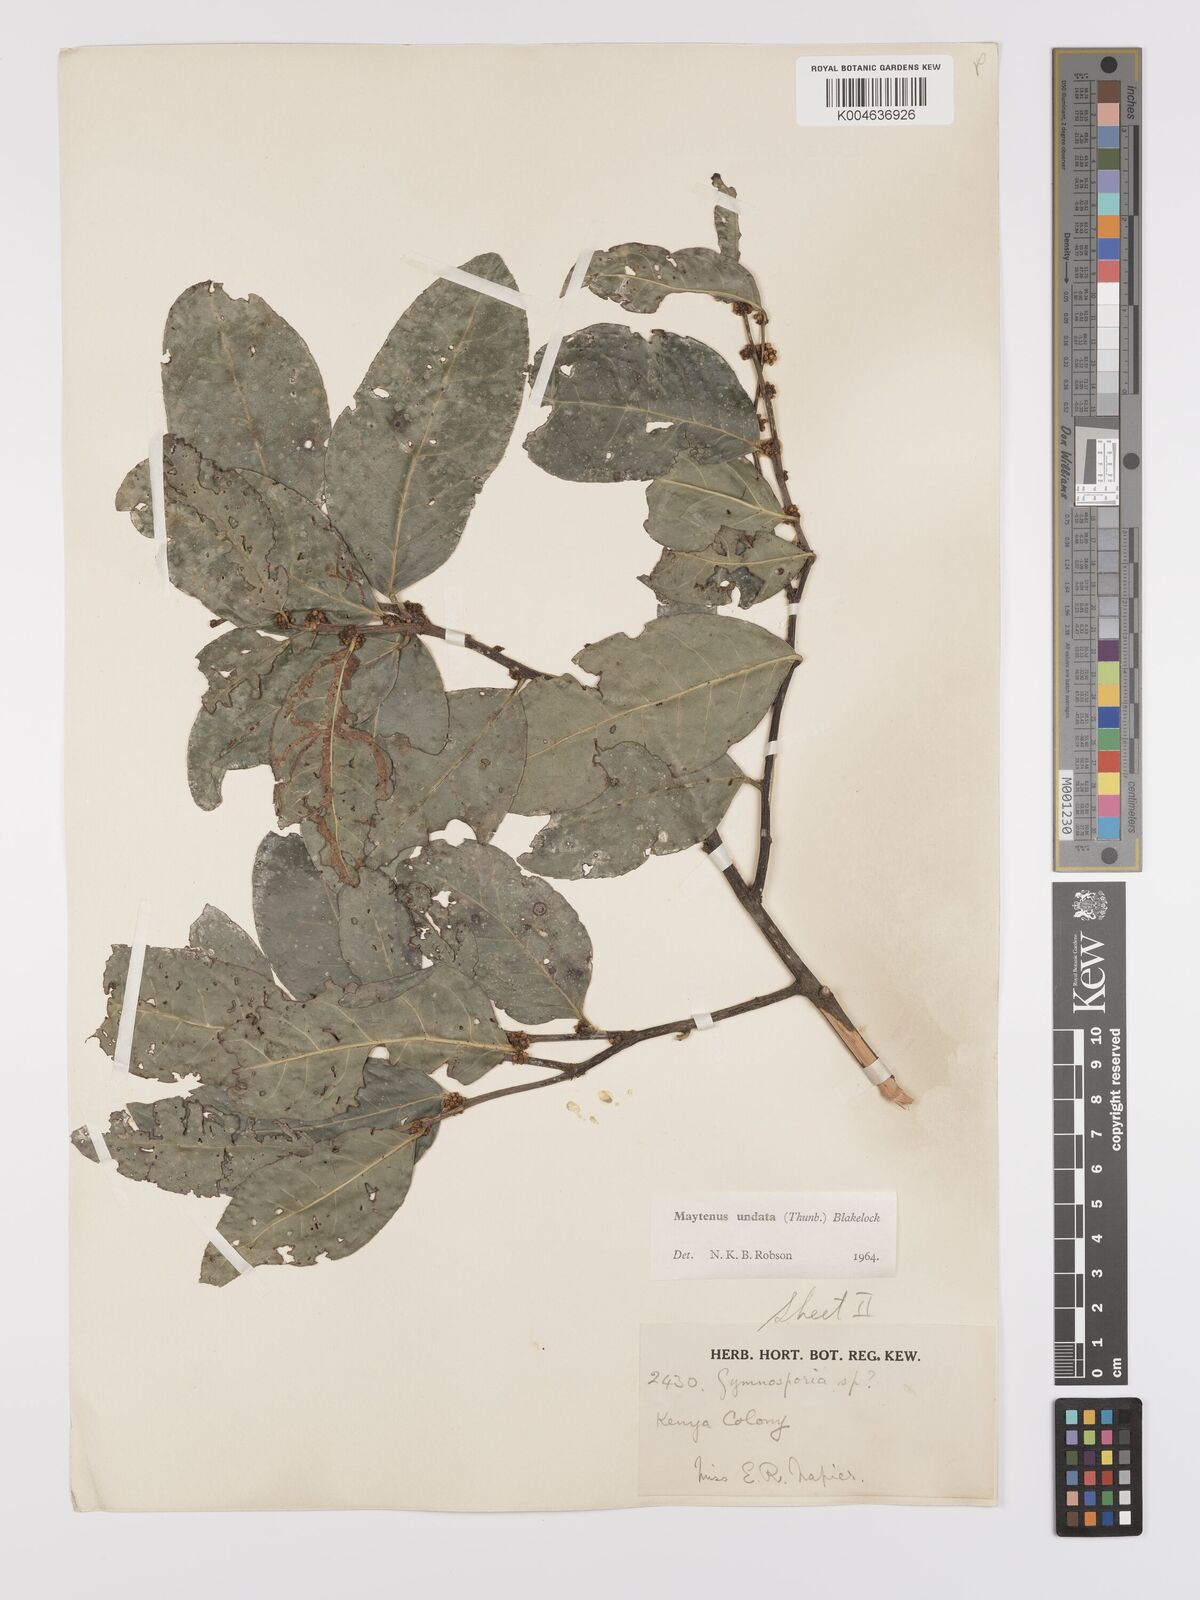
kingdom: Plantae
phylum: Tracheophyta
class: Magnoliopsida
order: Celastrales
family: Celastraceae
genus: Gymnosporia
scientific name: Gymnosporia undata
